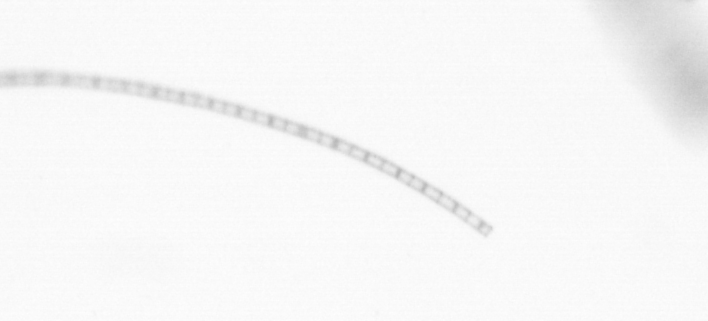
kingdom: Chromista
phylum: Ochrophyta
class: Bacillariophyceae
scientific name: Bacillariophyceae
